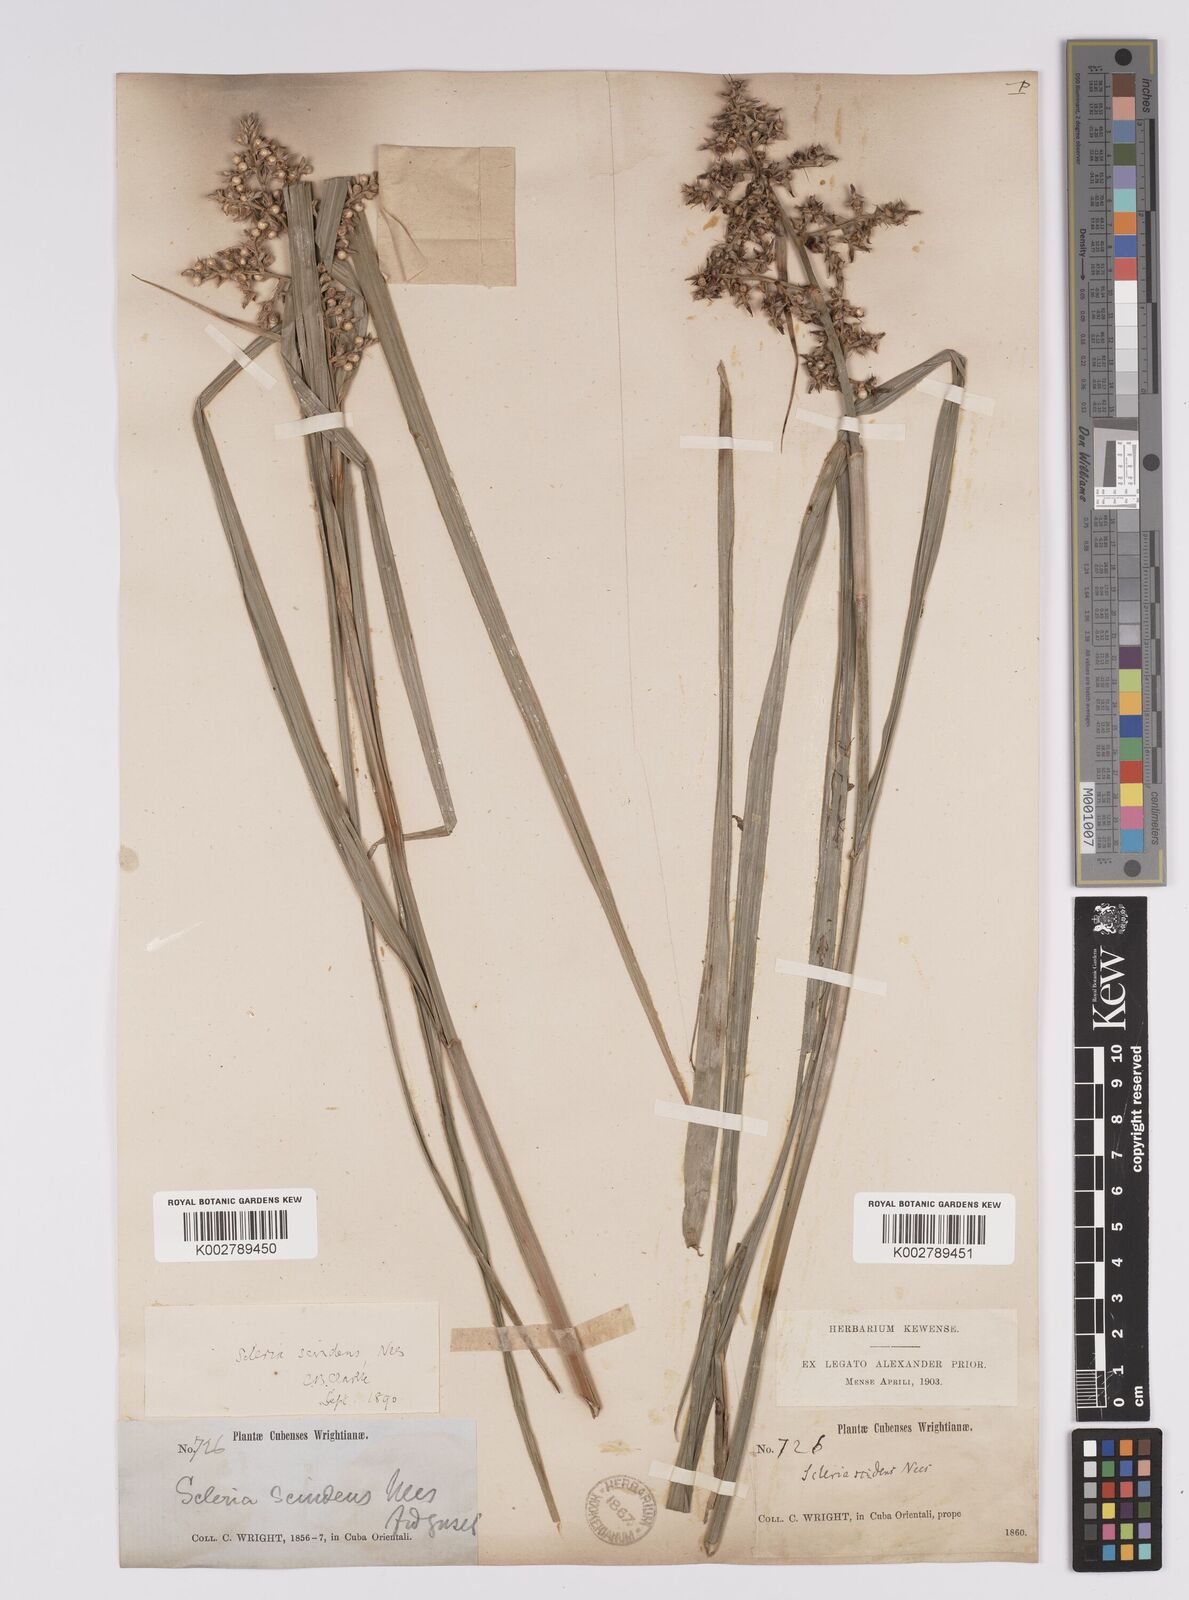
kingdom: Plantae
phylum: Tracheophyta
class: Liliopsida
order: Poales
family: Cyperaceae
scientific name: Cyperaceae
